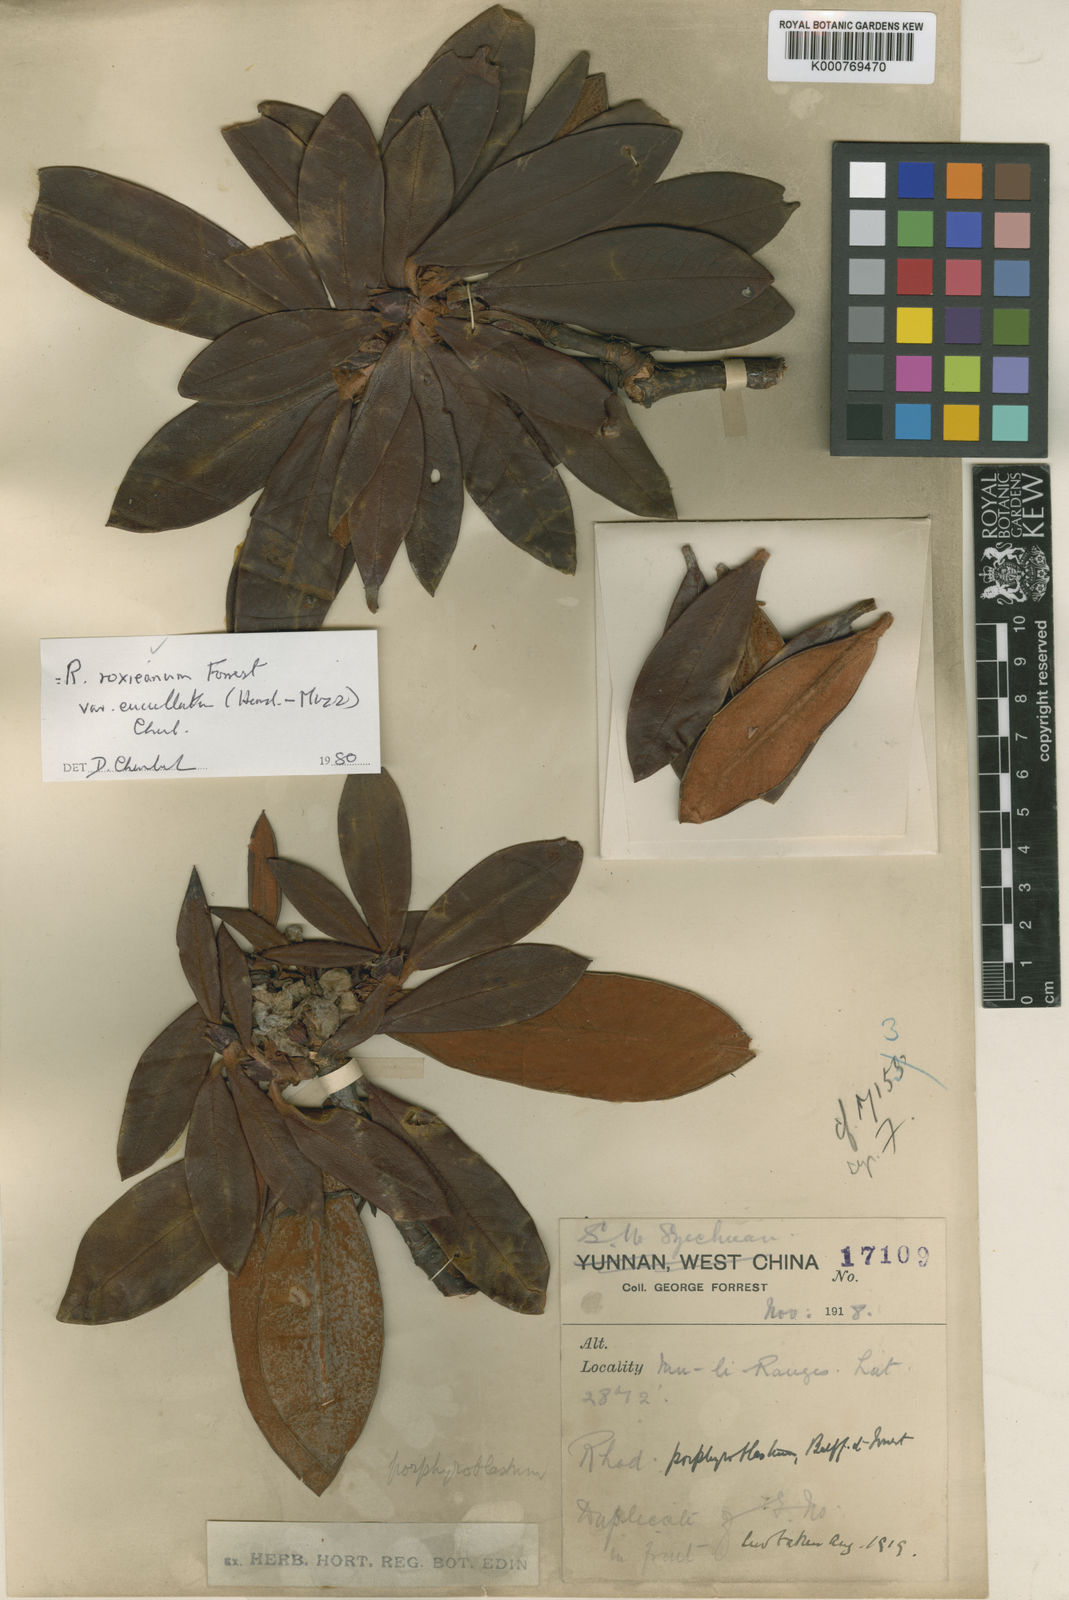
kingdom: Plantae
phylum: Tracheophyta
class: Magnoliopsida
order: Ericales
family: Ericaceae
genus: Rhododendron
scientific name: Rhododendron roxieanum
